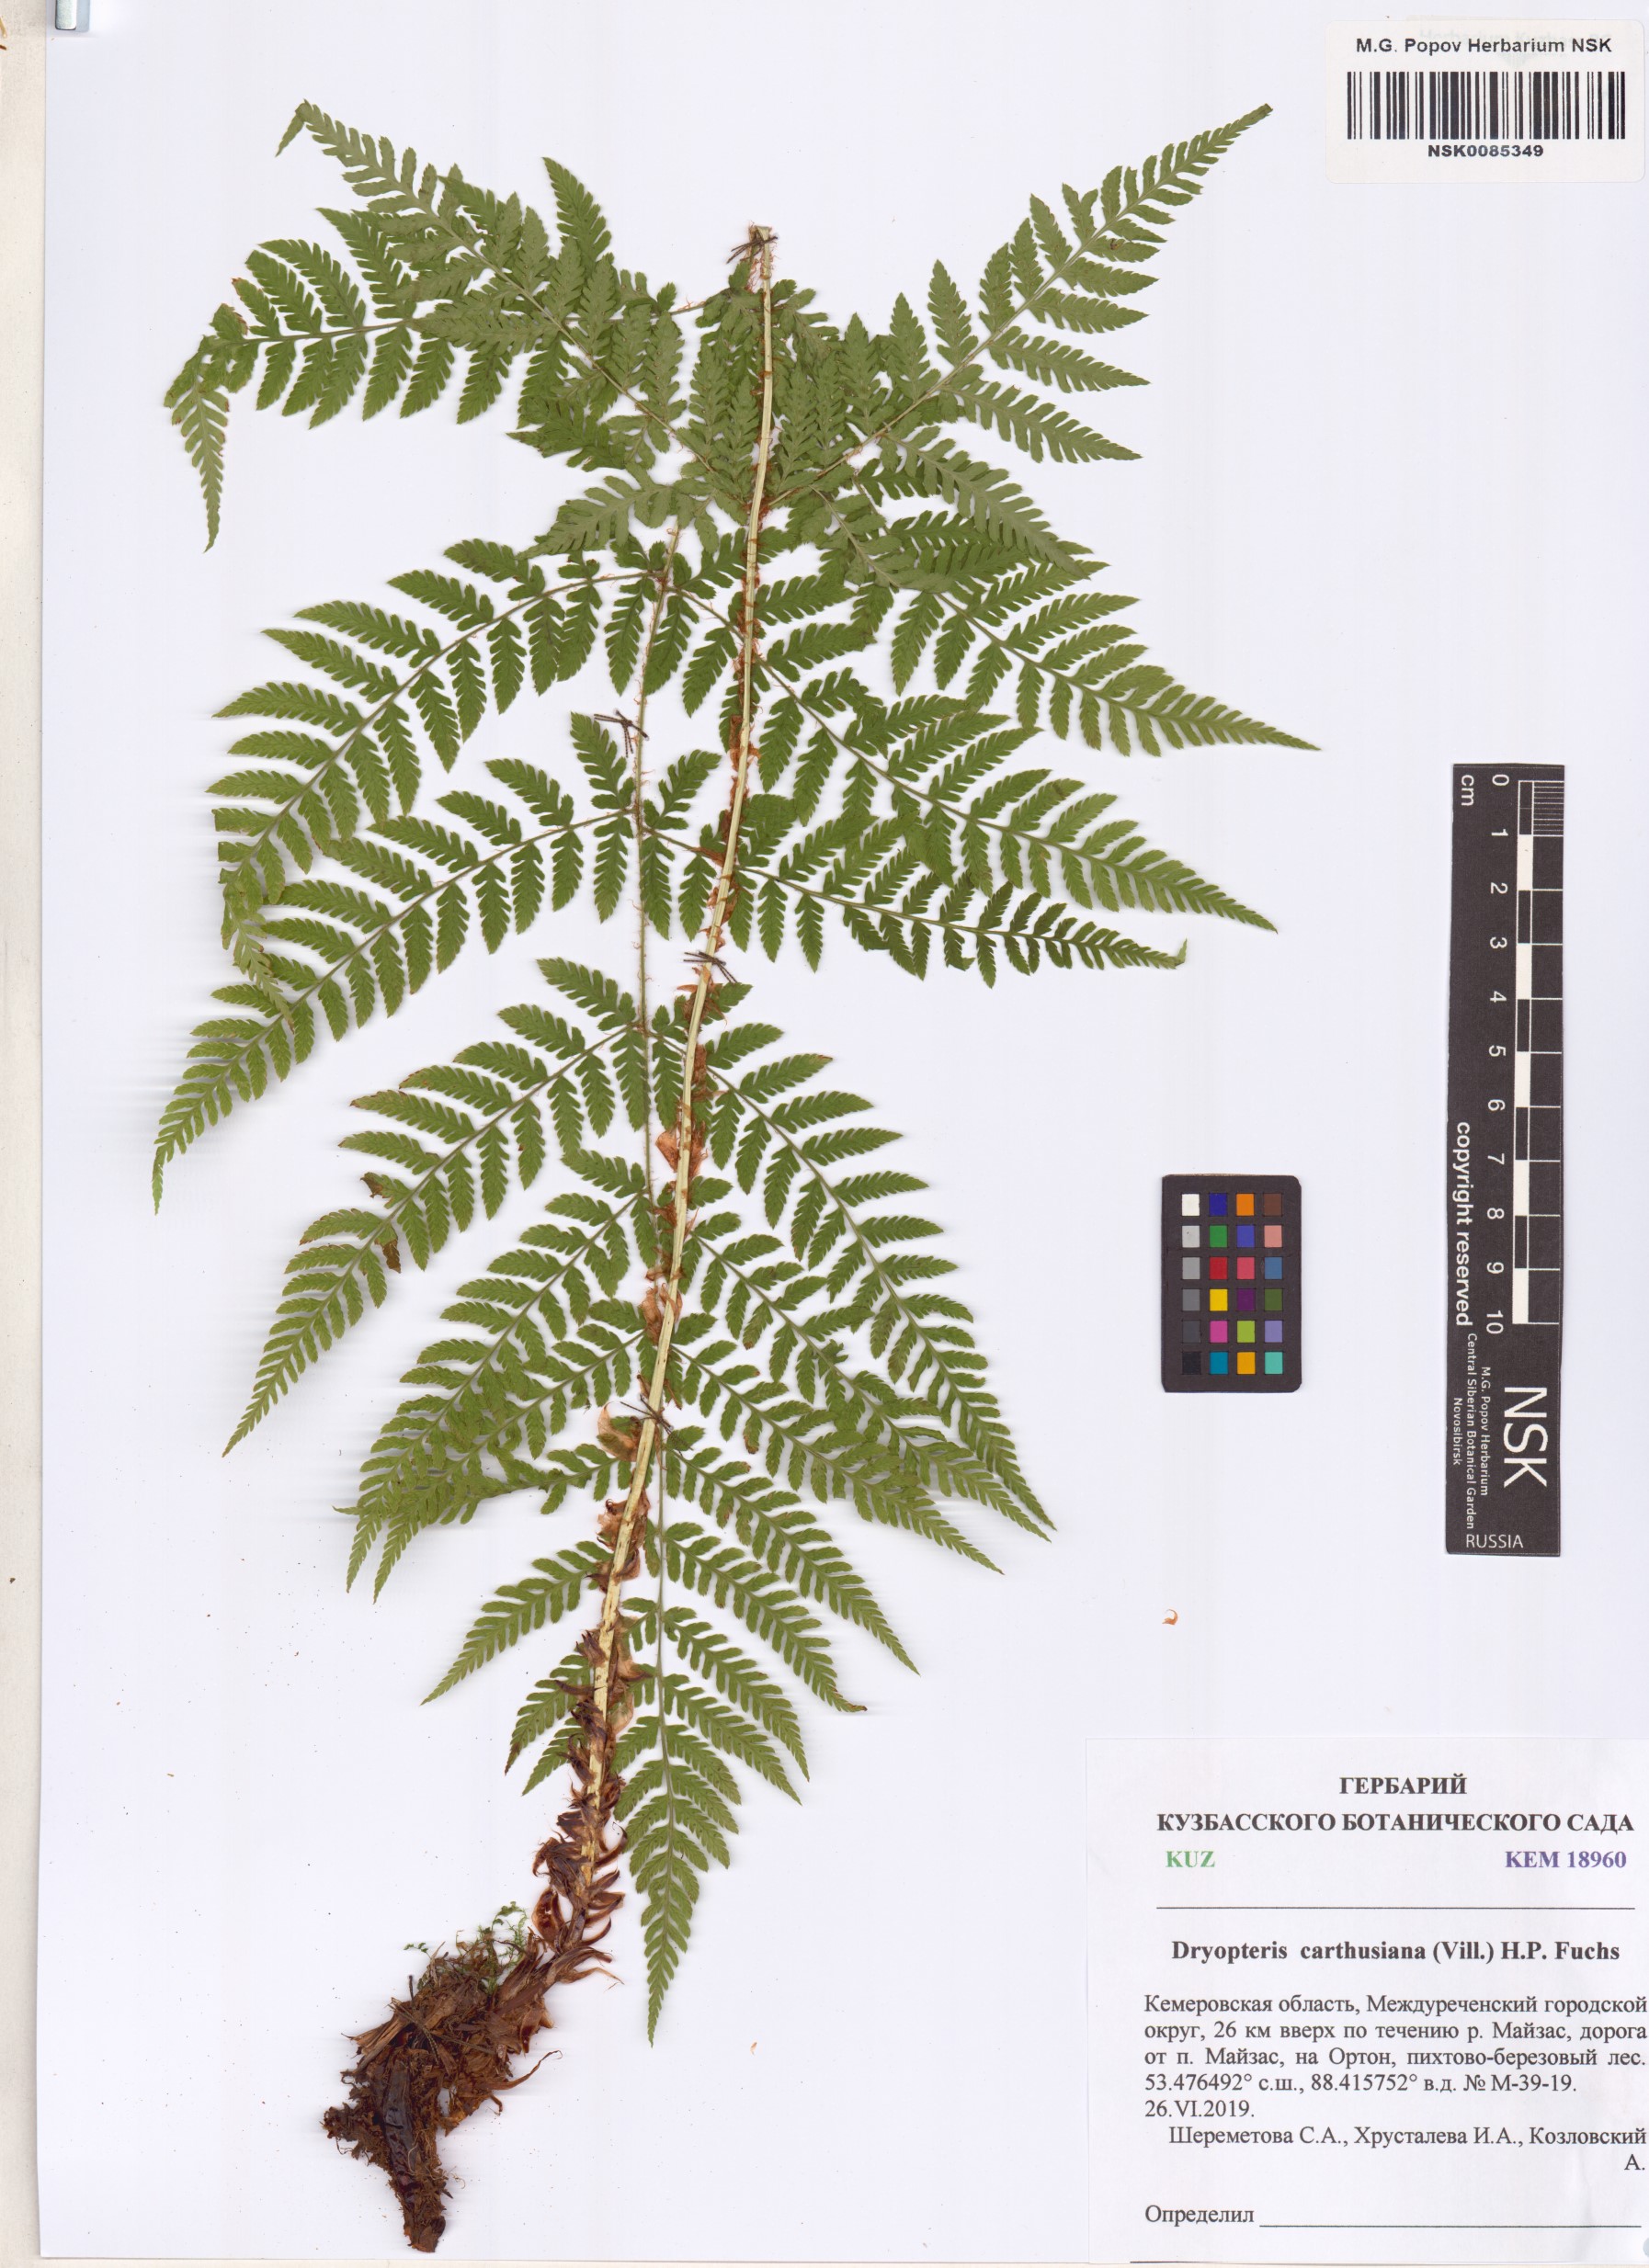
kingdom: Plantae
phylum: Tracheophyta
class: Polypodiopsida
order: Polypodiales
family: Dryopteridaceae
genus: Dryopteris
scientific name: Dryopteris carthusiana
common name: Narrow buckler-fern
